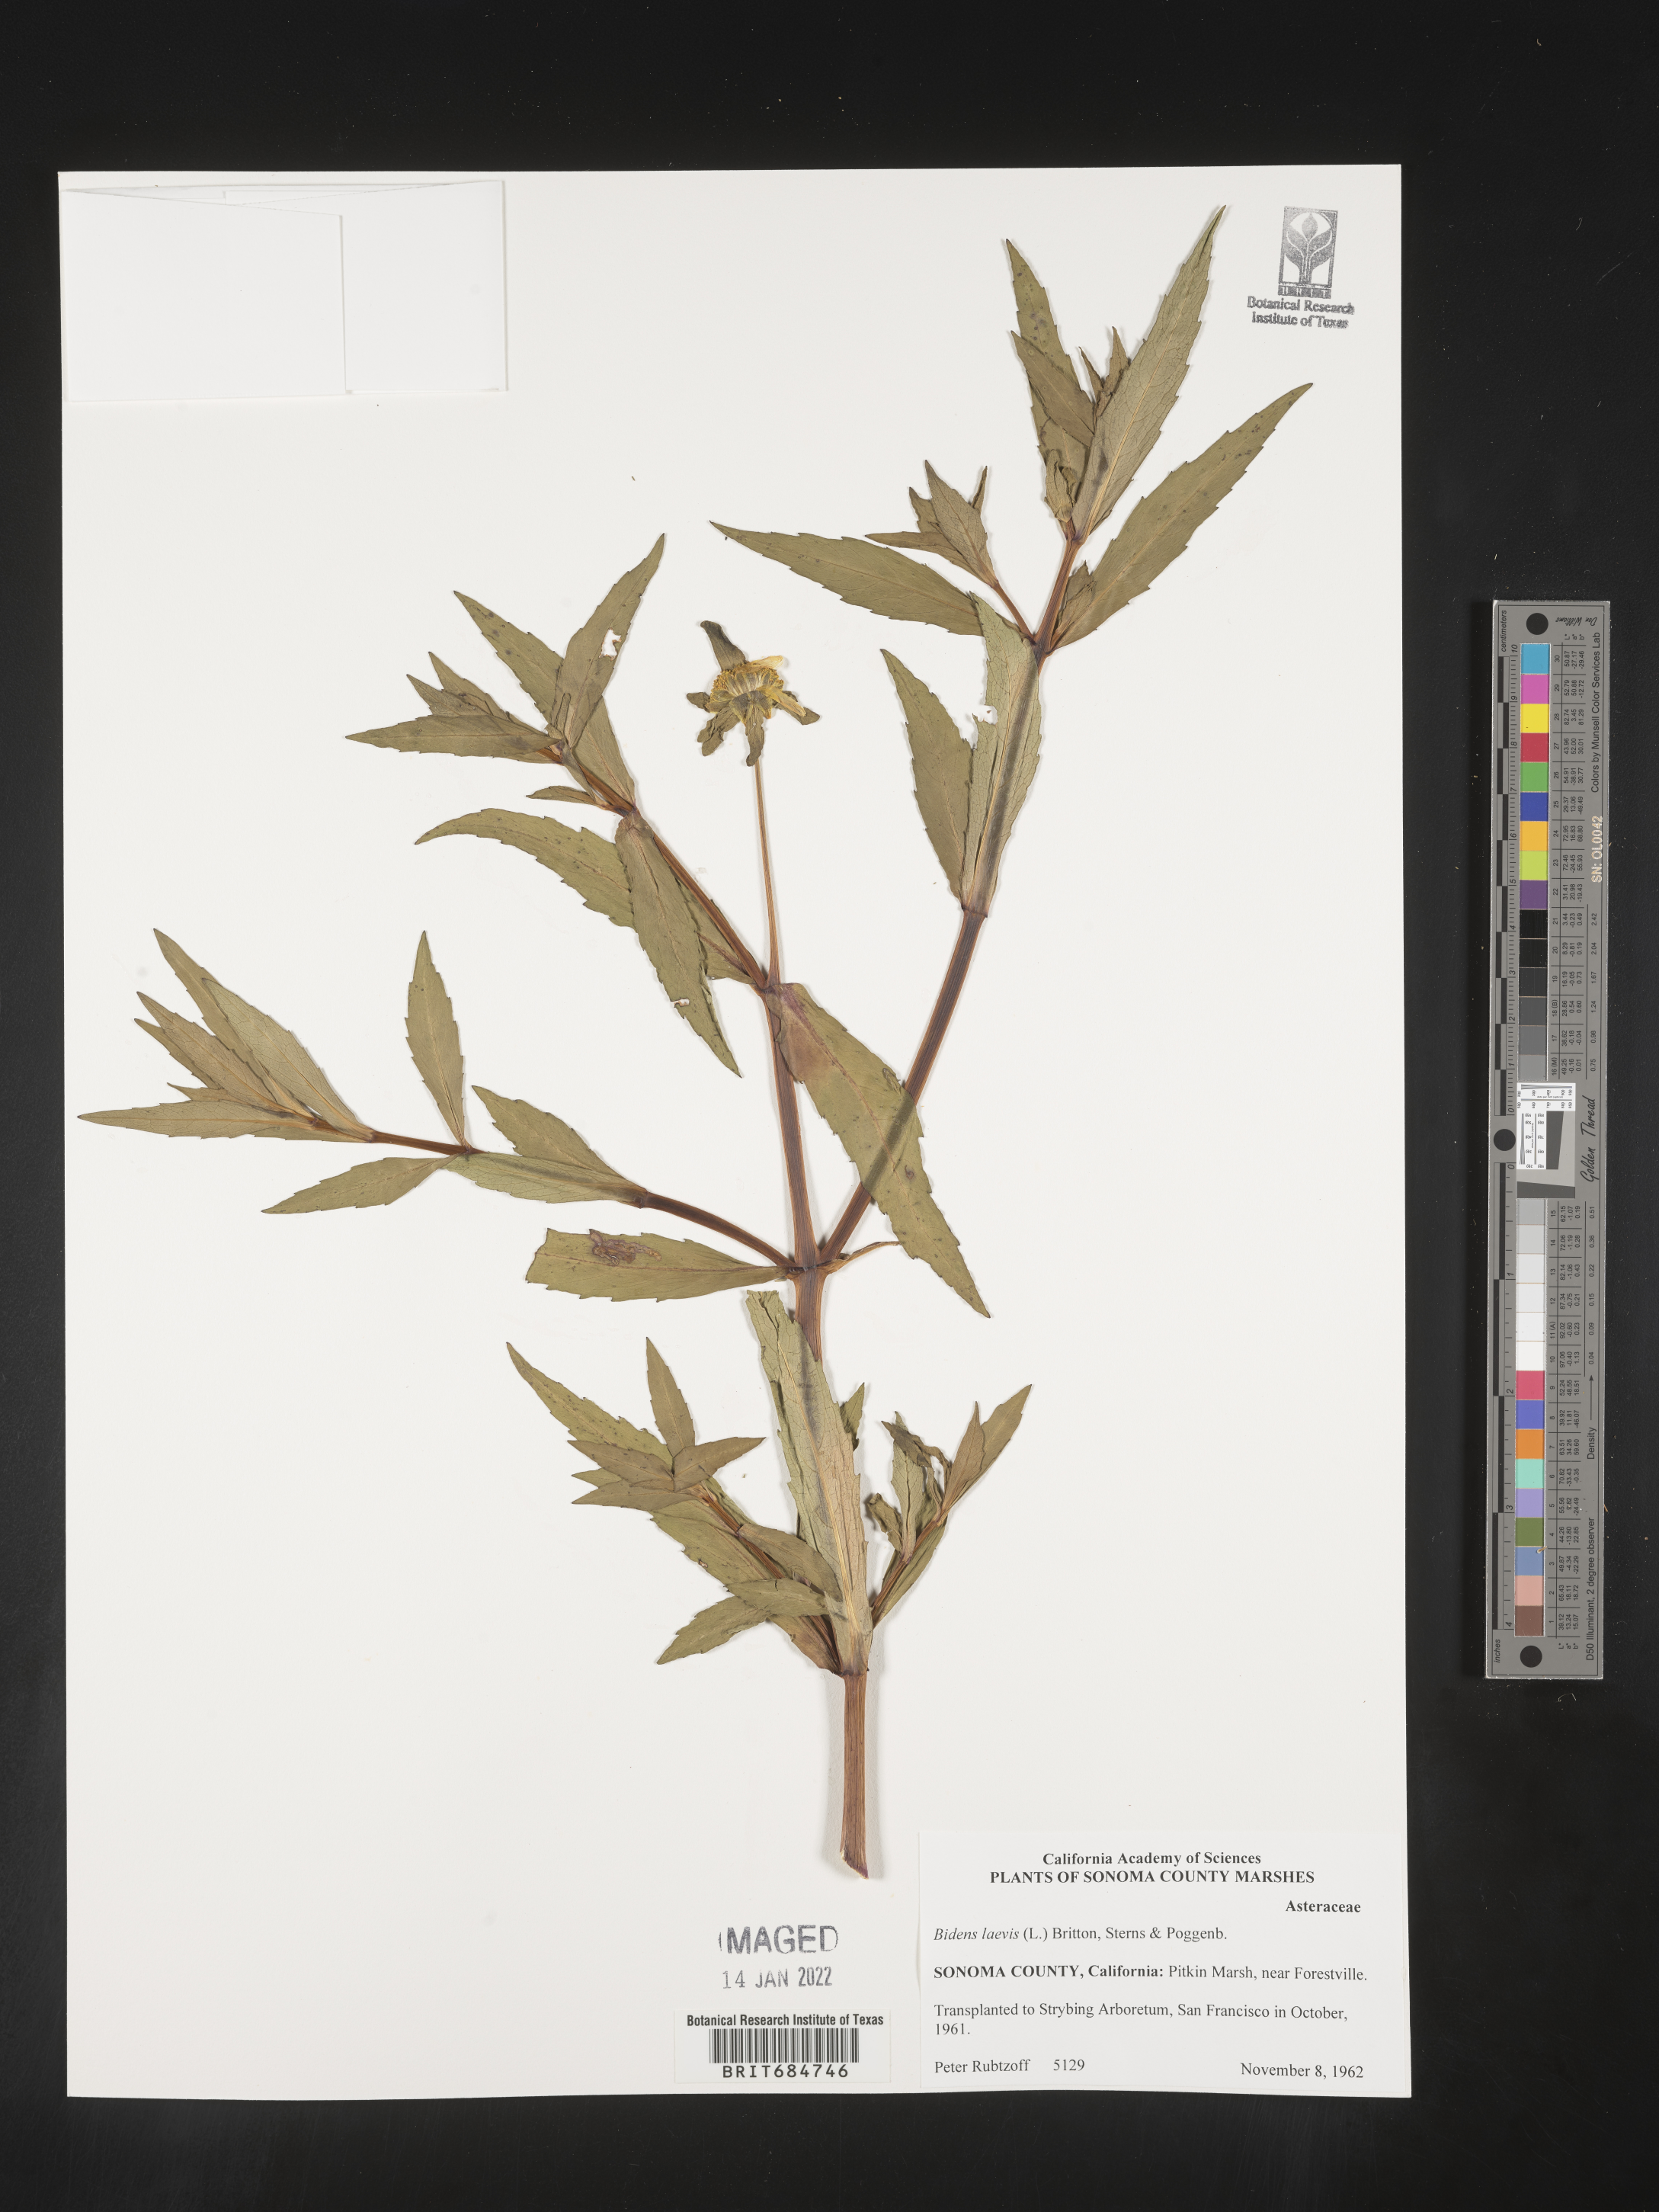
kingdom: Plantae
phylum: Tracheophyta
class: Magnoliopsida
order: Asterales
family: Asteraceae
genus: Bidens
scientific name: Bidens laevis
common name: Larger bur-marigold
